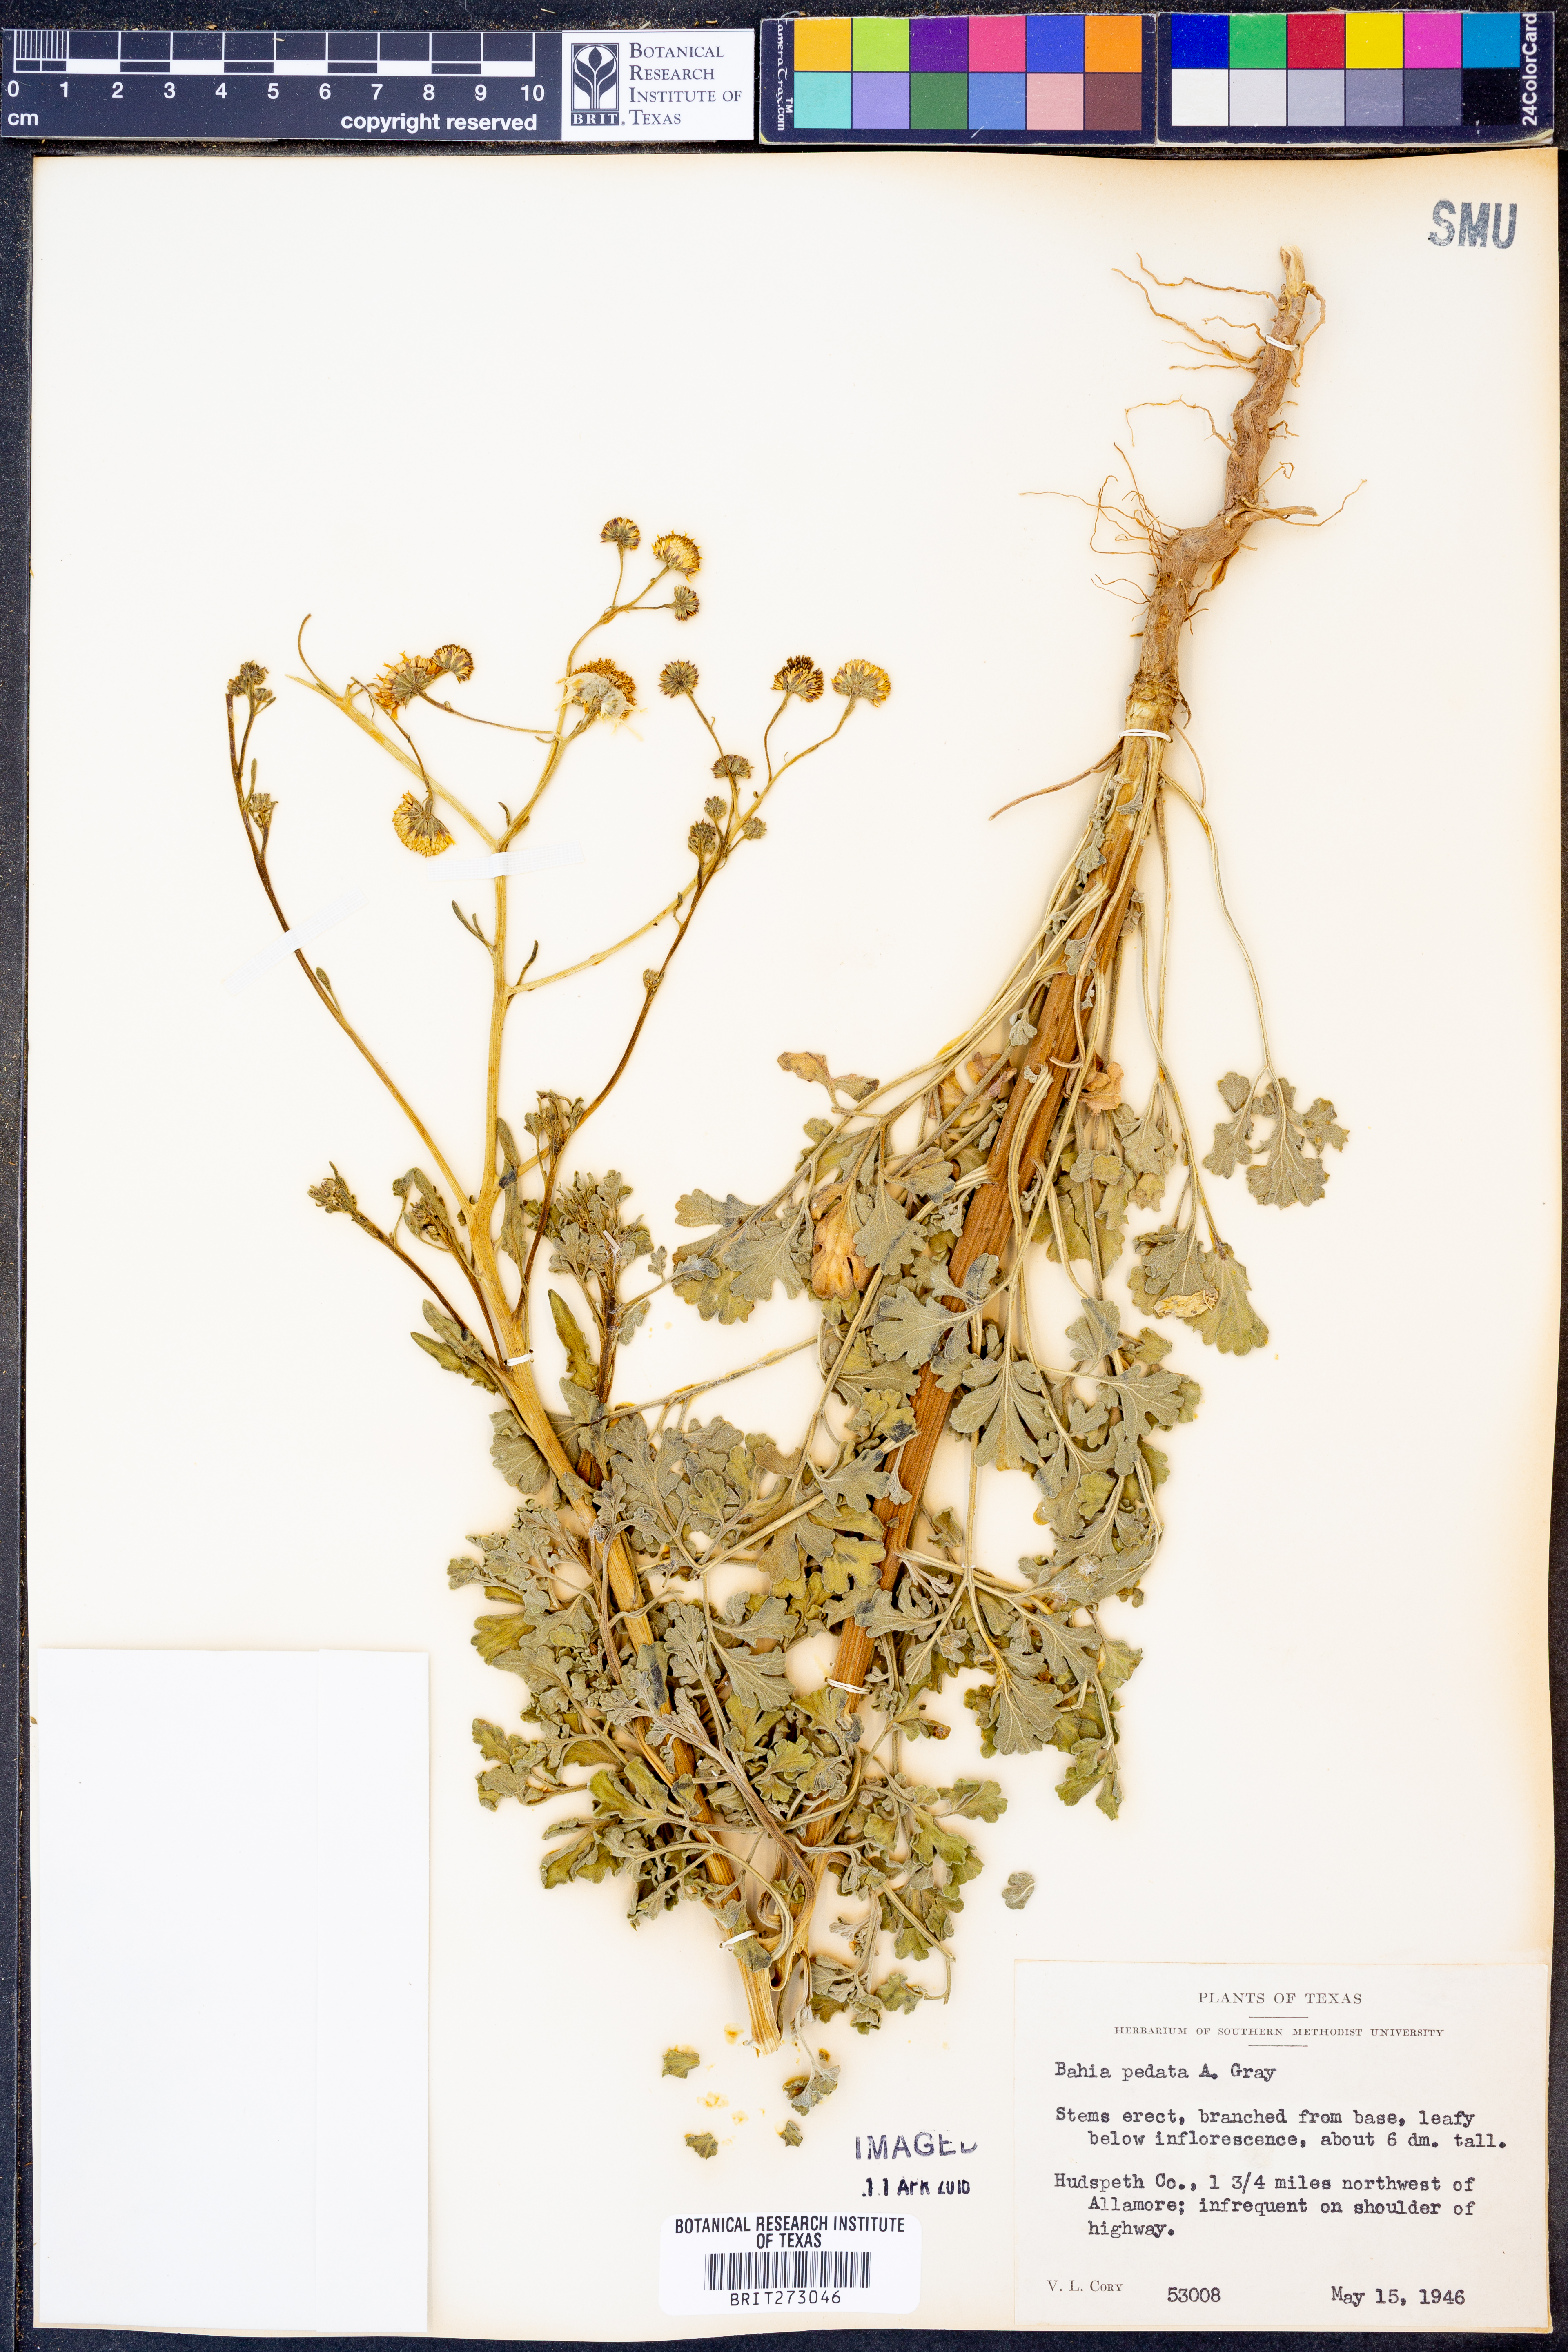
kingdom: Plantae
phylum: Tracheophyta
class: Magnoliopsida
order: Asterales
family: Asteraceae
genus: Hymenothrix
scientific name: Hymenothrix pedata
